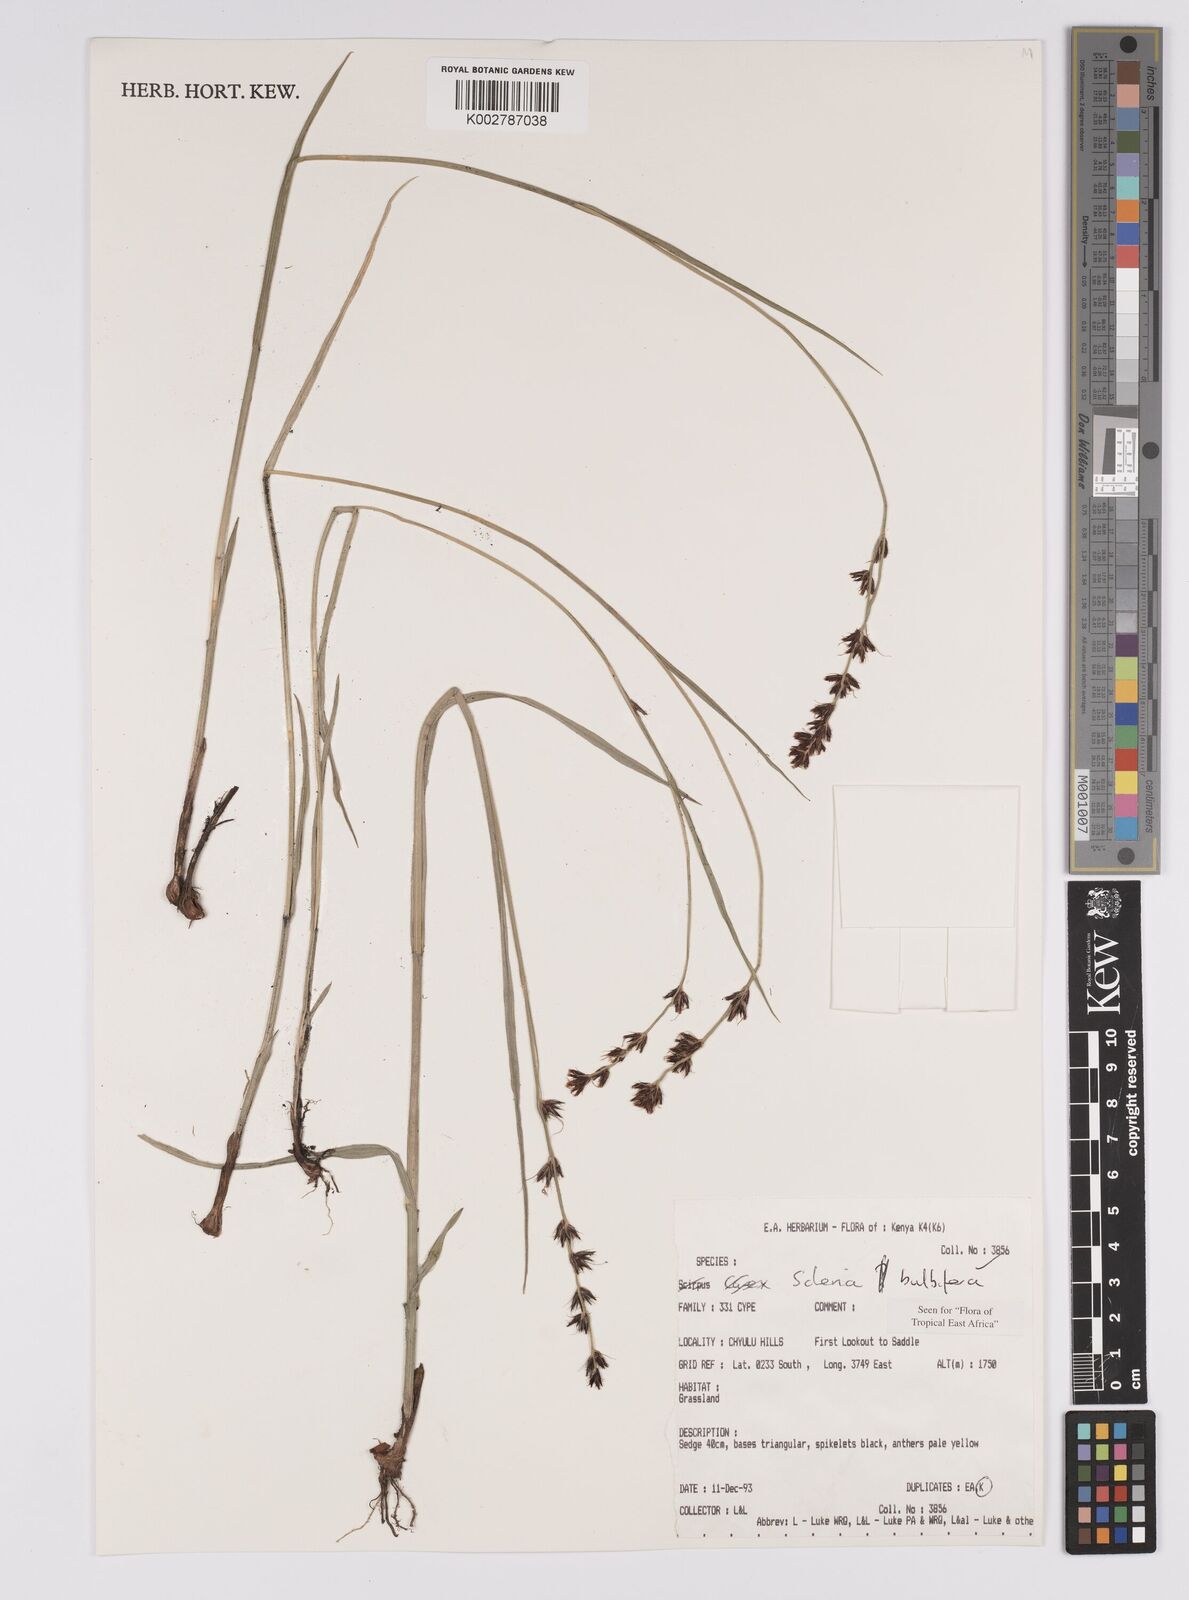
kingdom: Plantae
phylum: Tracheophyta
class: Liliopsida
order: Poales
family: Cyperaceae
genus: Scleria
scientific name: Scleria bulbifera
